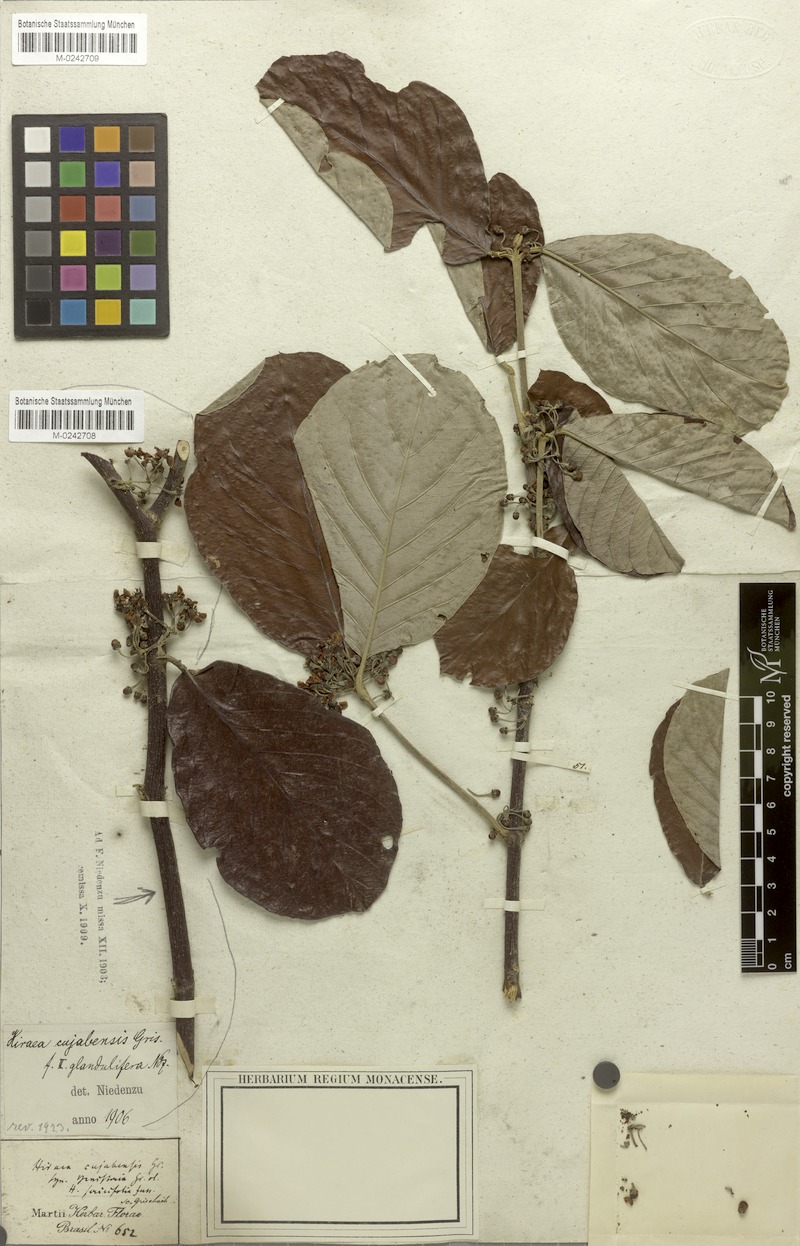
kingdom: Plantae
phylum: Tracheophyta
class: Magnoliopsida
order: Malpighiales
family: Malpighiaceae
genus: Hiraea
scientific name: Hiraea cuiabensis
